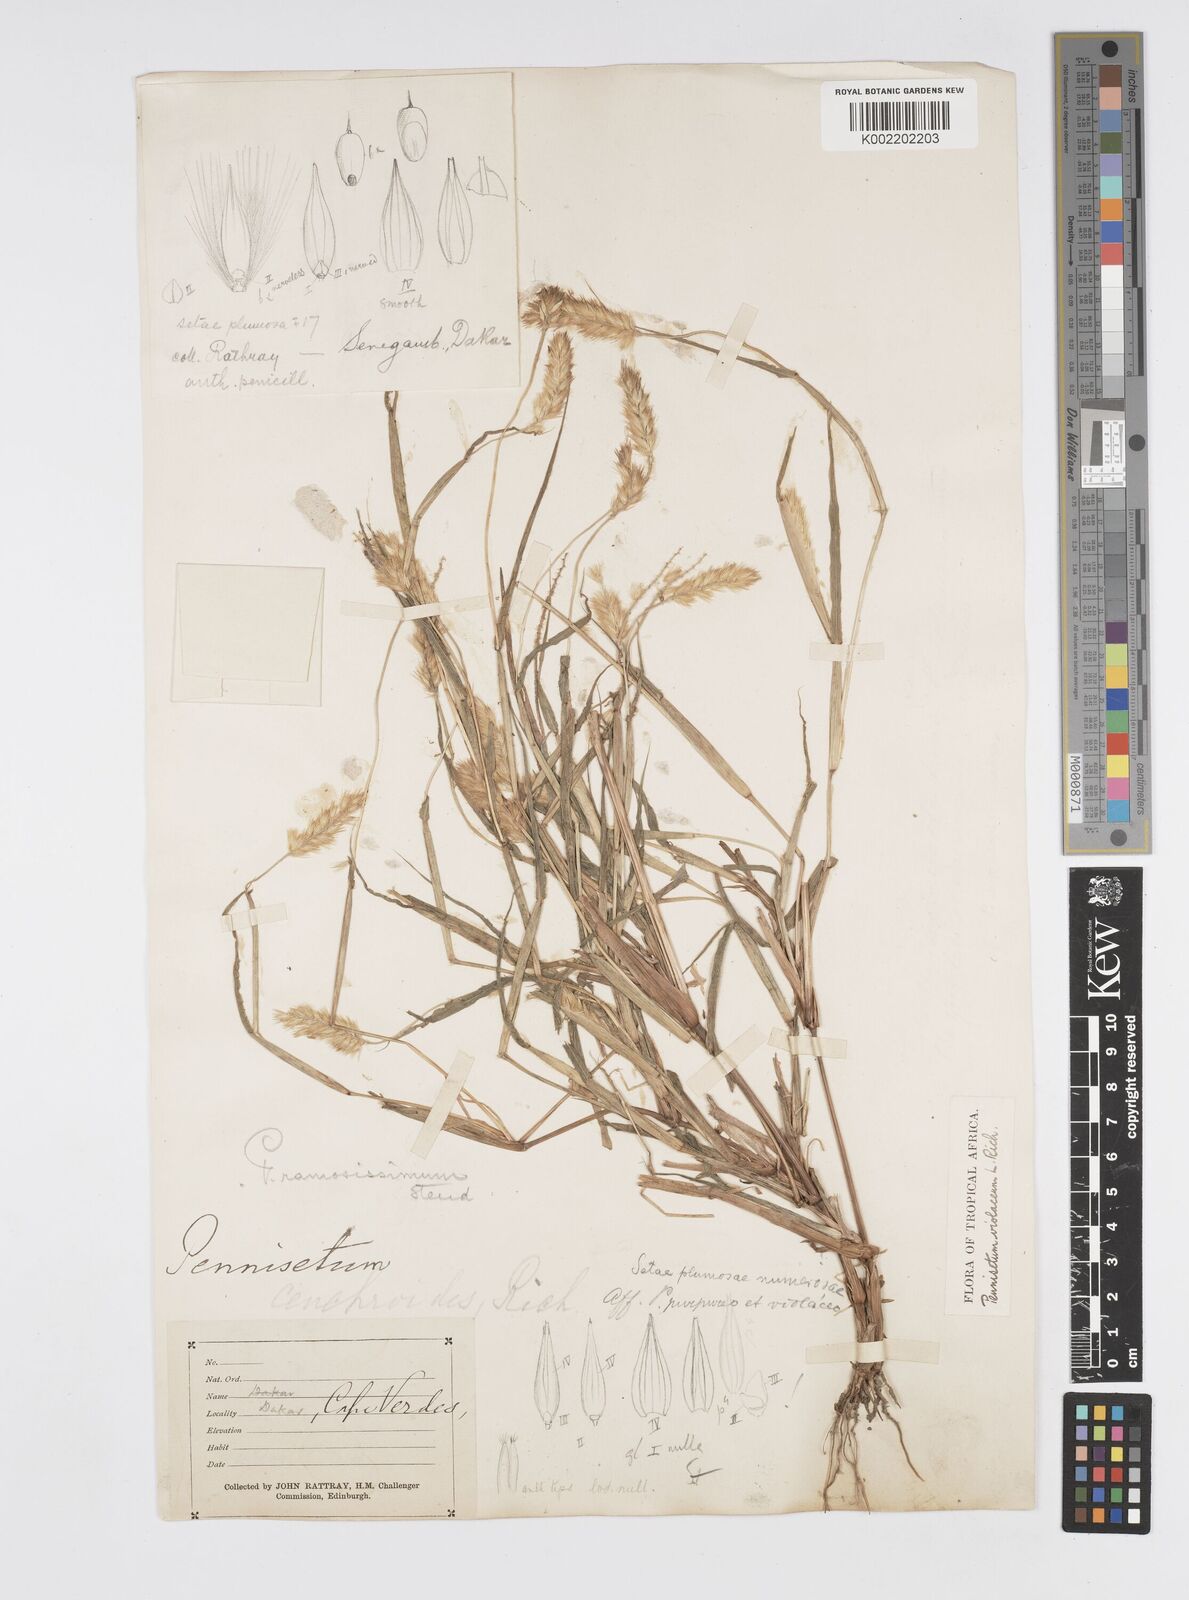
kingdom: Plantae
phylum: Tracheophyta
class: Liliopsida
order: Poales
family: Poaceae
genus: Cenchrus
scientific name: Cenchrus violaceus
